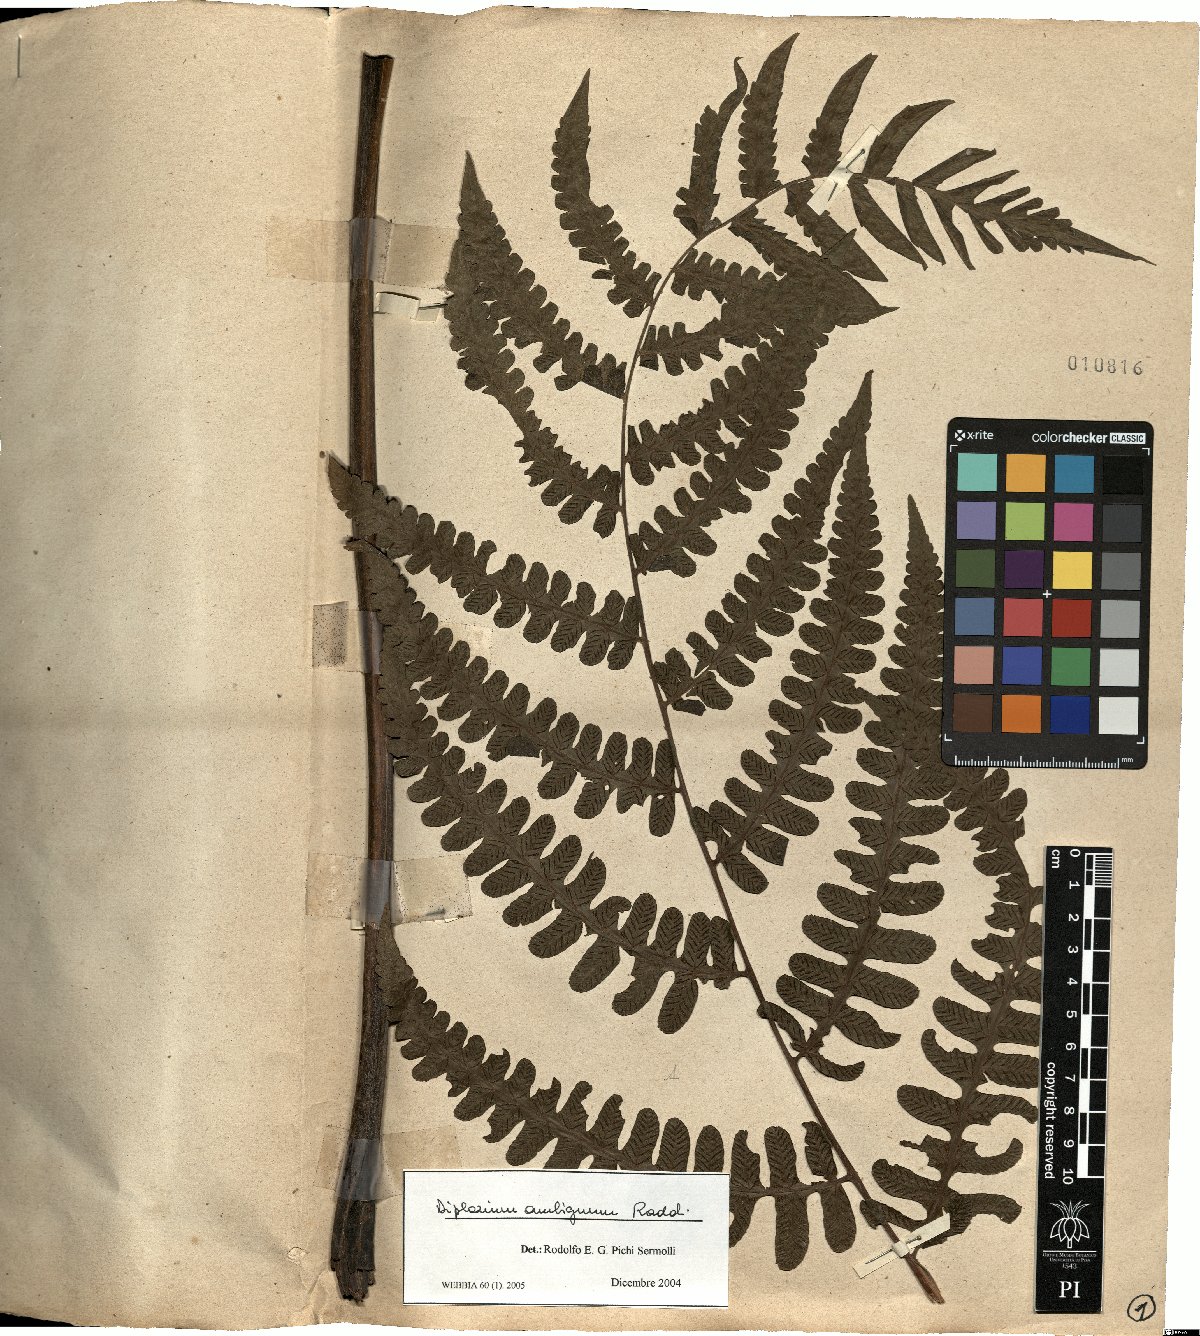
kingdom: Plantae
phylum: Tracheophyta
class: Polypodiopsida
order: Polypodiales
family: Athyriaceae
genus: Diplazium
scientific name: Diplazium ambiguum
